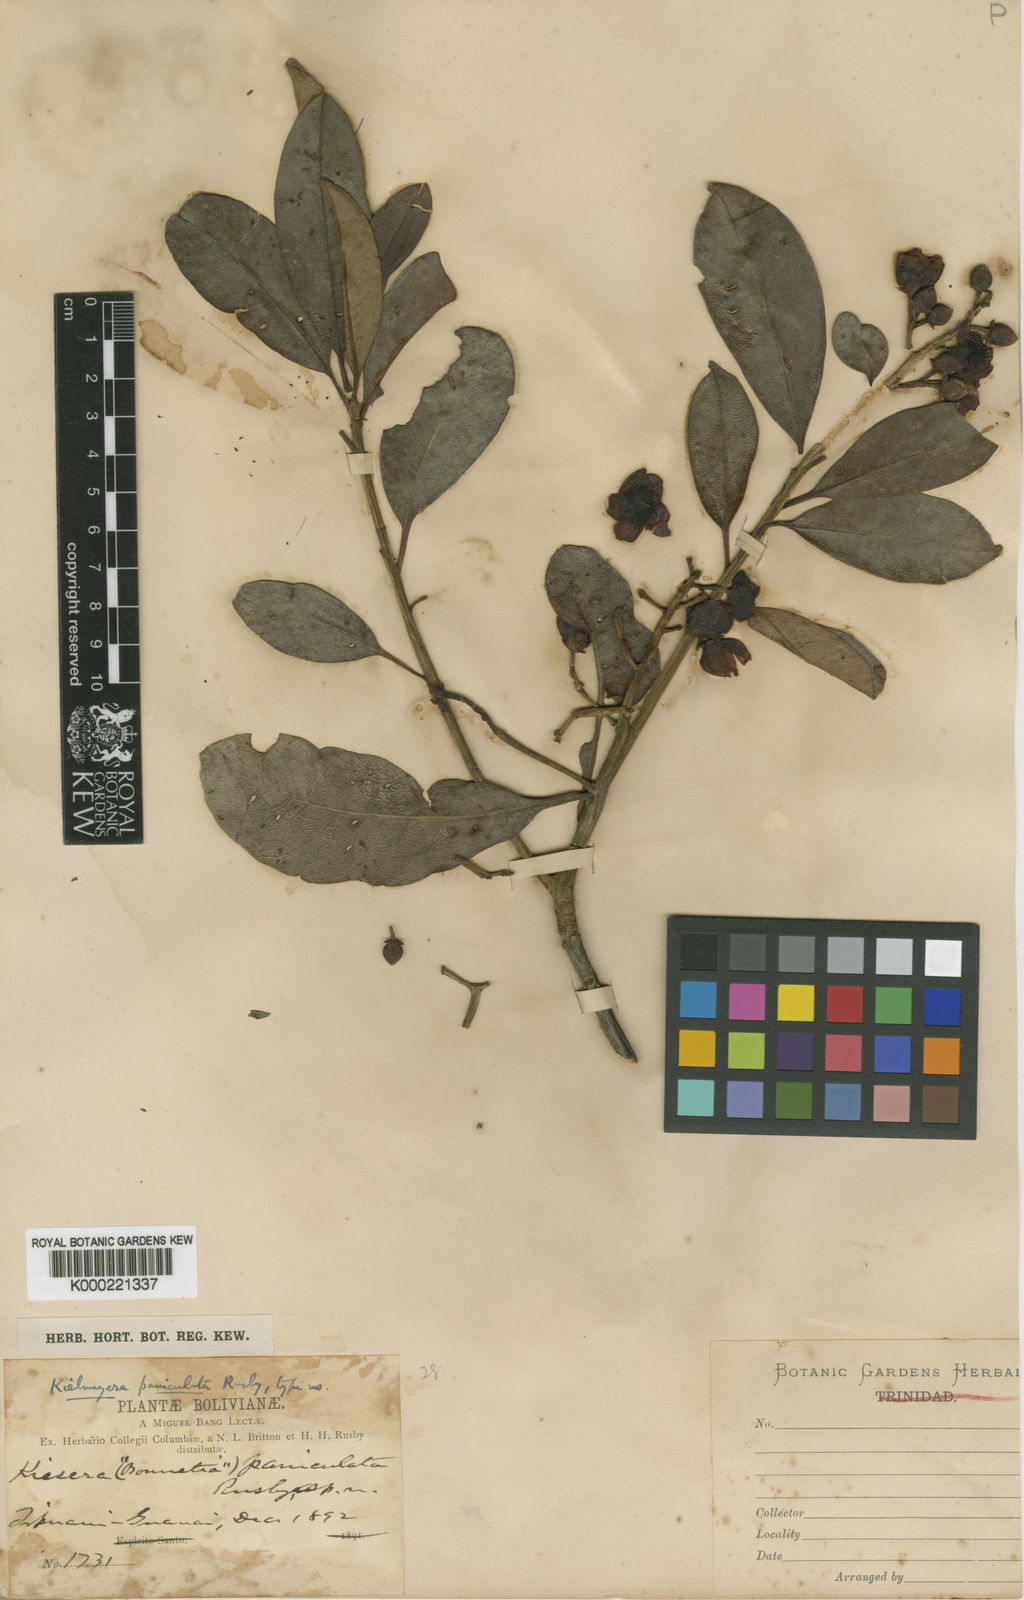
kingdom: Plantae
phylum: Tracheophyta
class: Magnoliopsida
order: Malpighiales
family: Calophyllaceae
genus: Kielmeyera
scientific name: Kielmeyera paniculata
